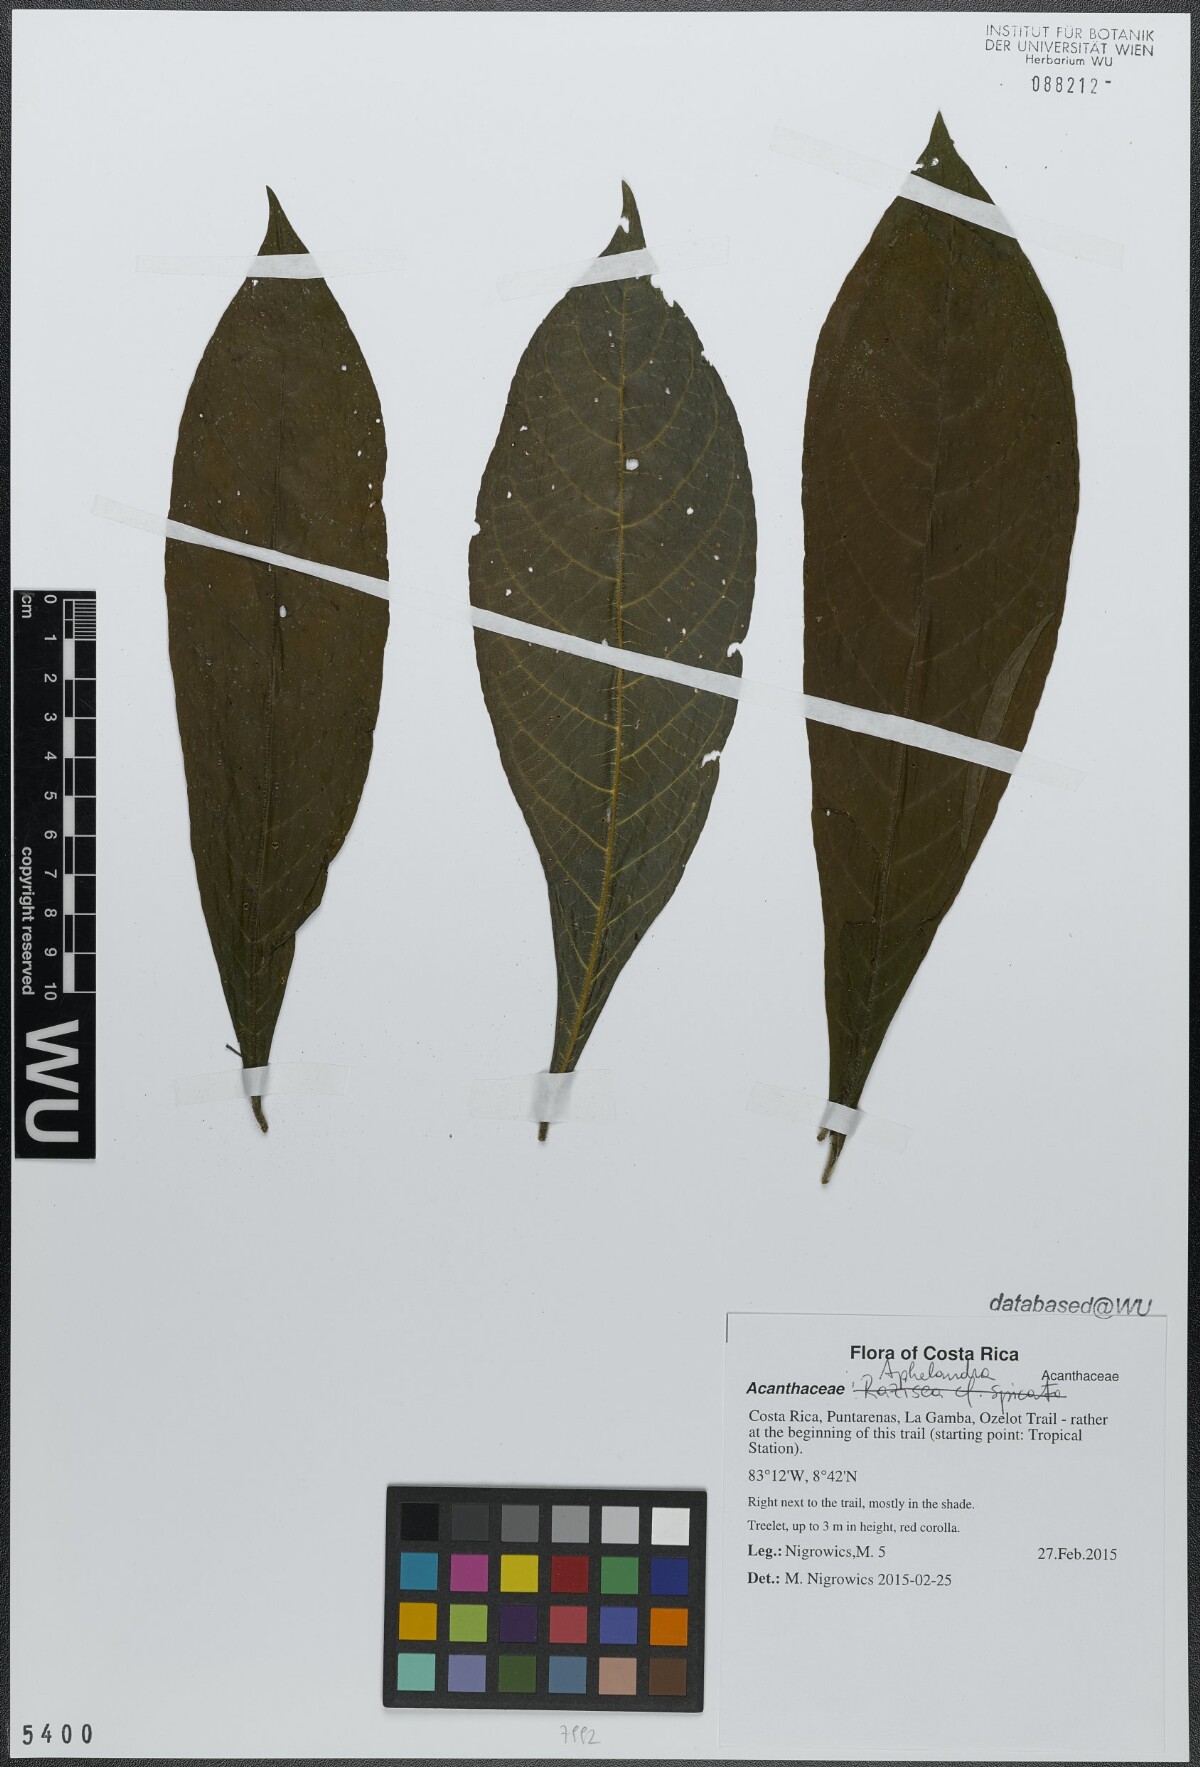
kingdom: Plantae
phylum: Tracheophyta
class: Magnoliopsida
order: Lamiales
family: Acanthaceae
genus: Aphelandra
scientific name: Aphelandra golfodulcensis
